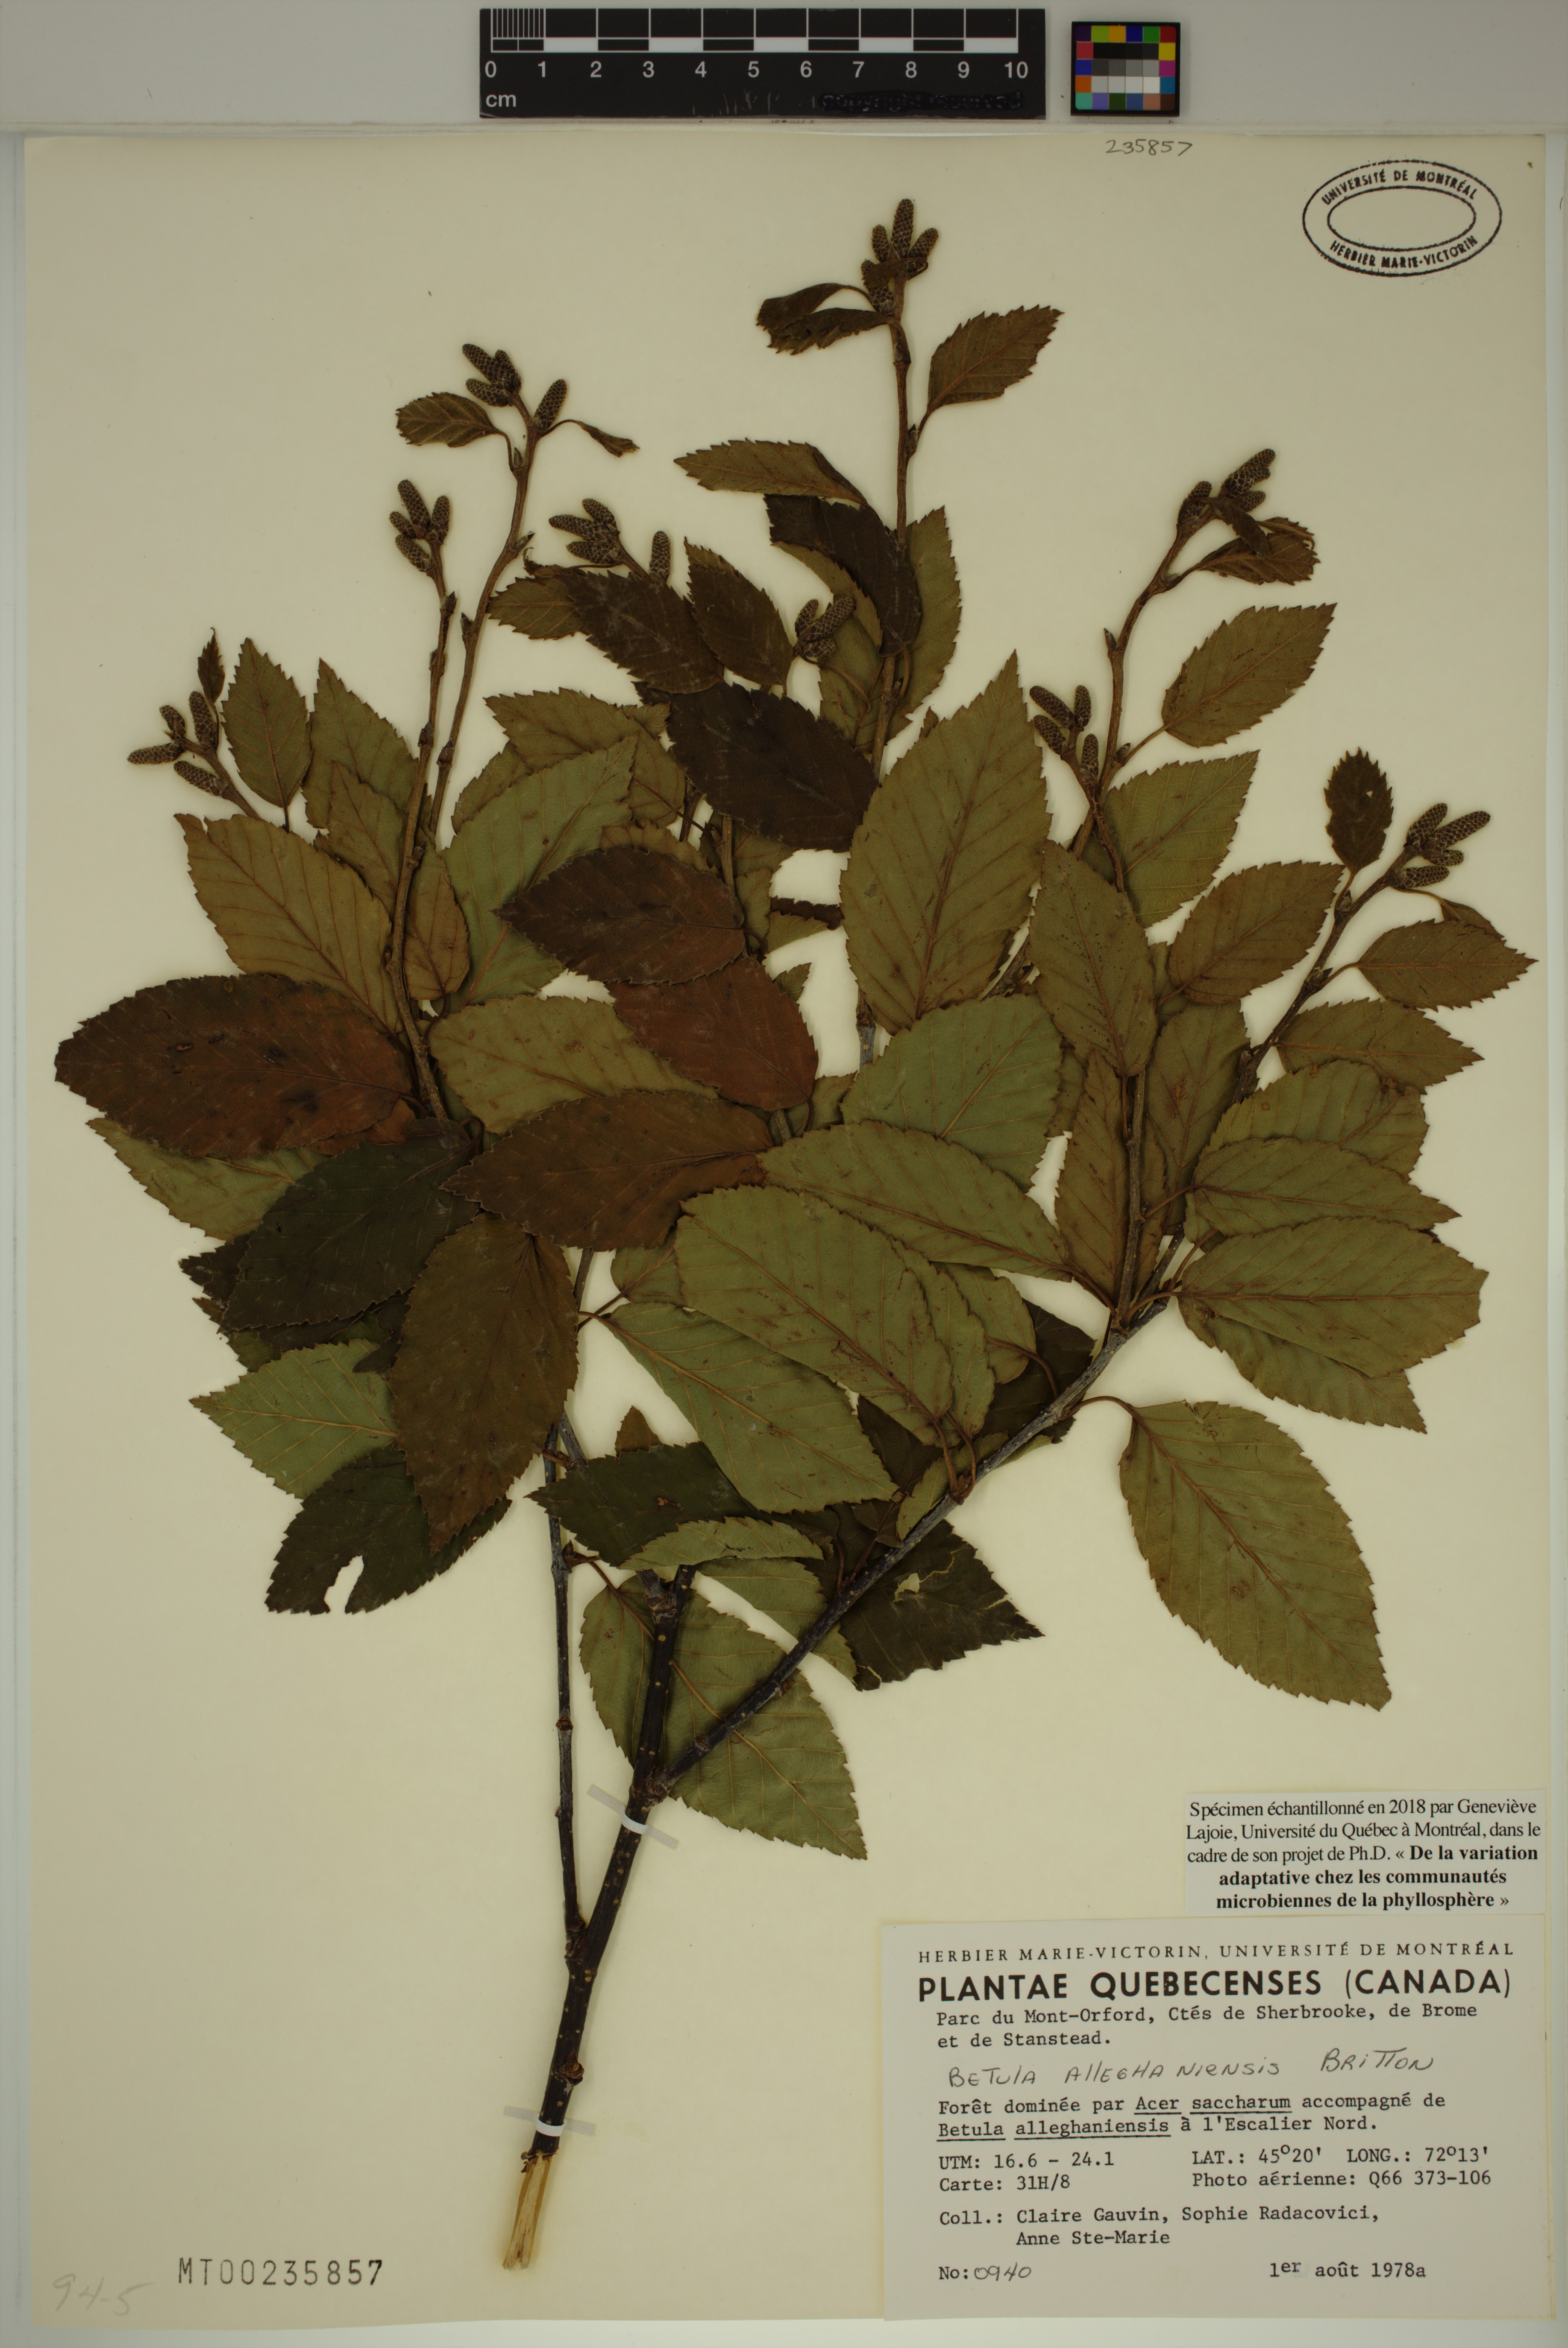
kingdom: Plantae
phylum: Tracheophyta
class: Magnoliopsida
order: Fagales
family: Betulaceae
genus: Betula
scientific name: Betula alleghaniensis
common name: Yellow birch
